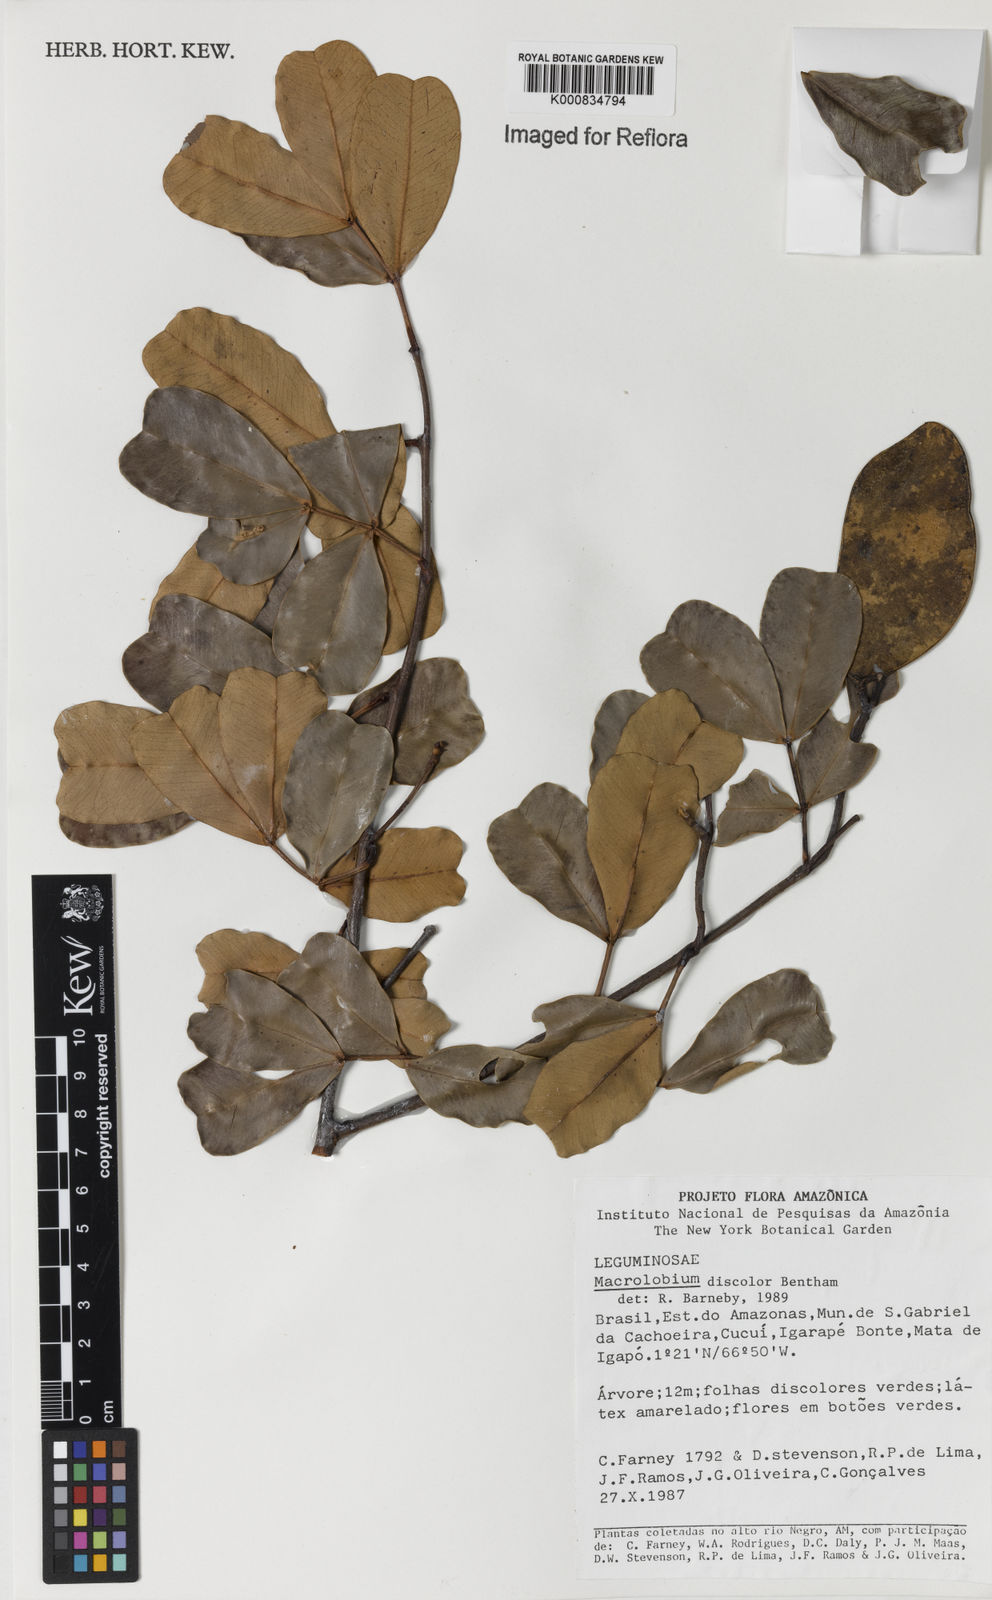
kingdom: Plantae
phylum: Tracheophyta
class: Magnoliopsida
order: Fabales
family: Fabaceae
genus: Macrolobium
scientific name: Macrolobium discolor
